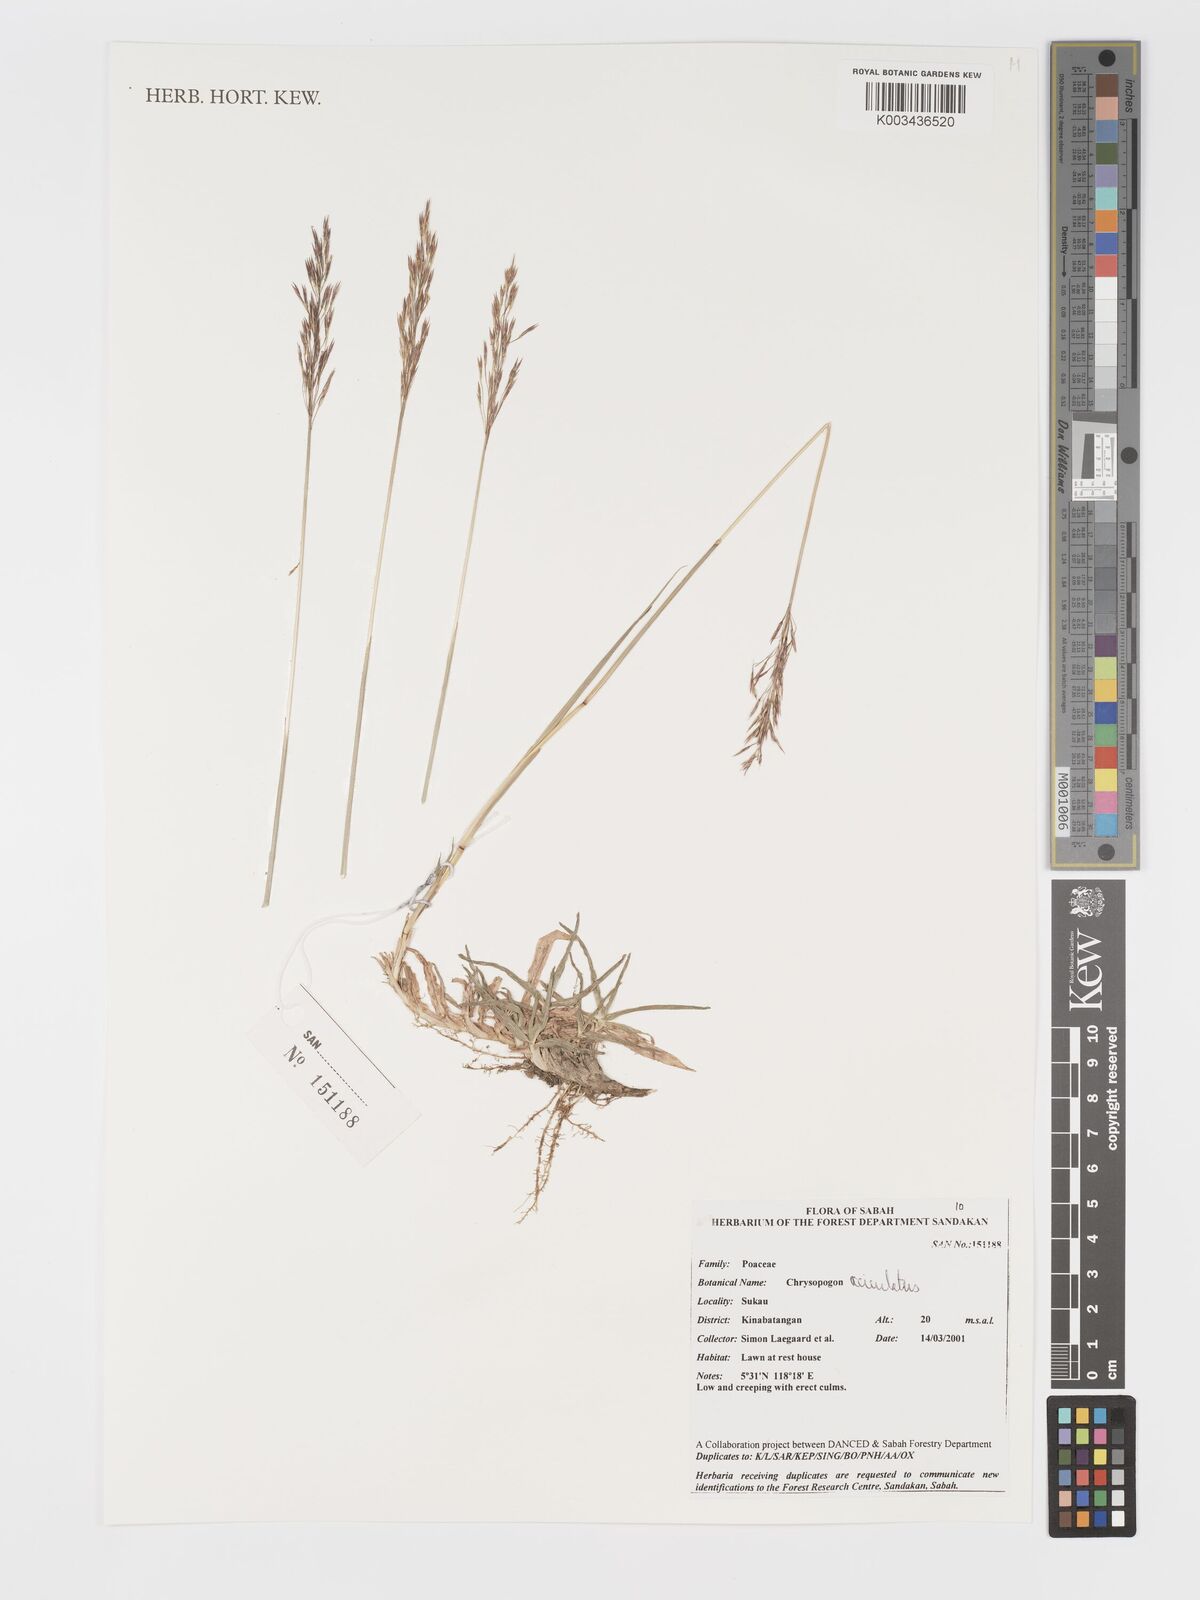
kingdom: Plantae
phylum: Tracheophyta
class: Liliopsida
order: Poales
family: Poaceae
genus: Chrysopogon
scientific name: Chrysopogon aciculatus
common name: Pilipiliula
